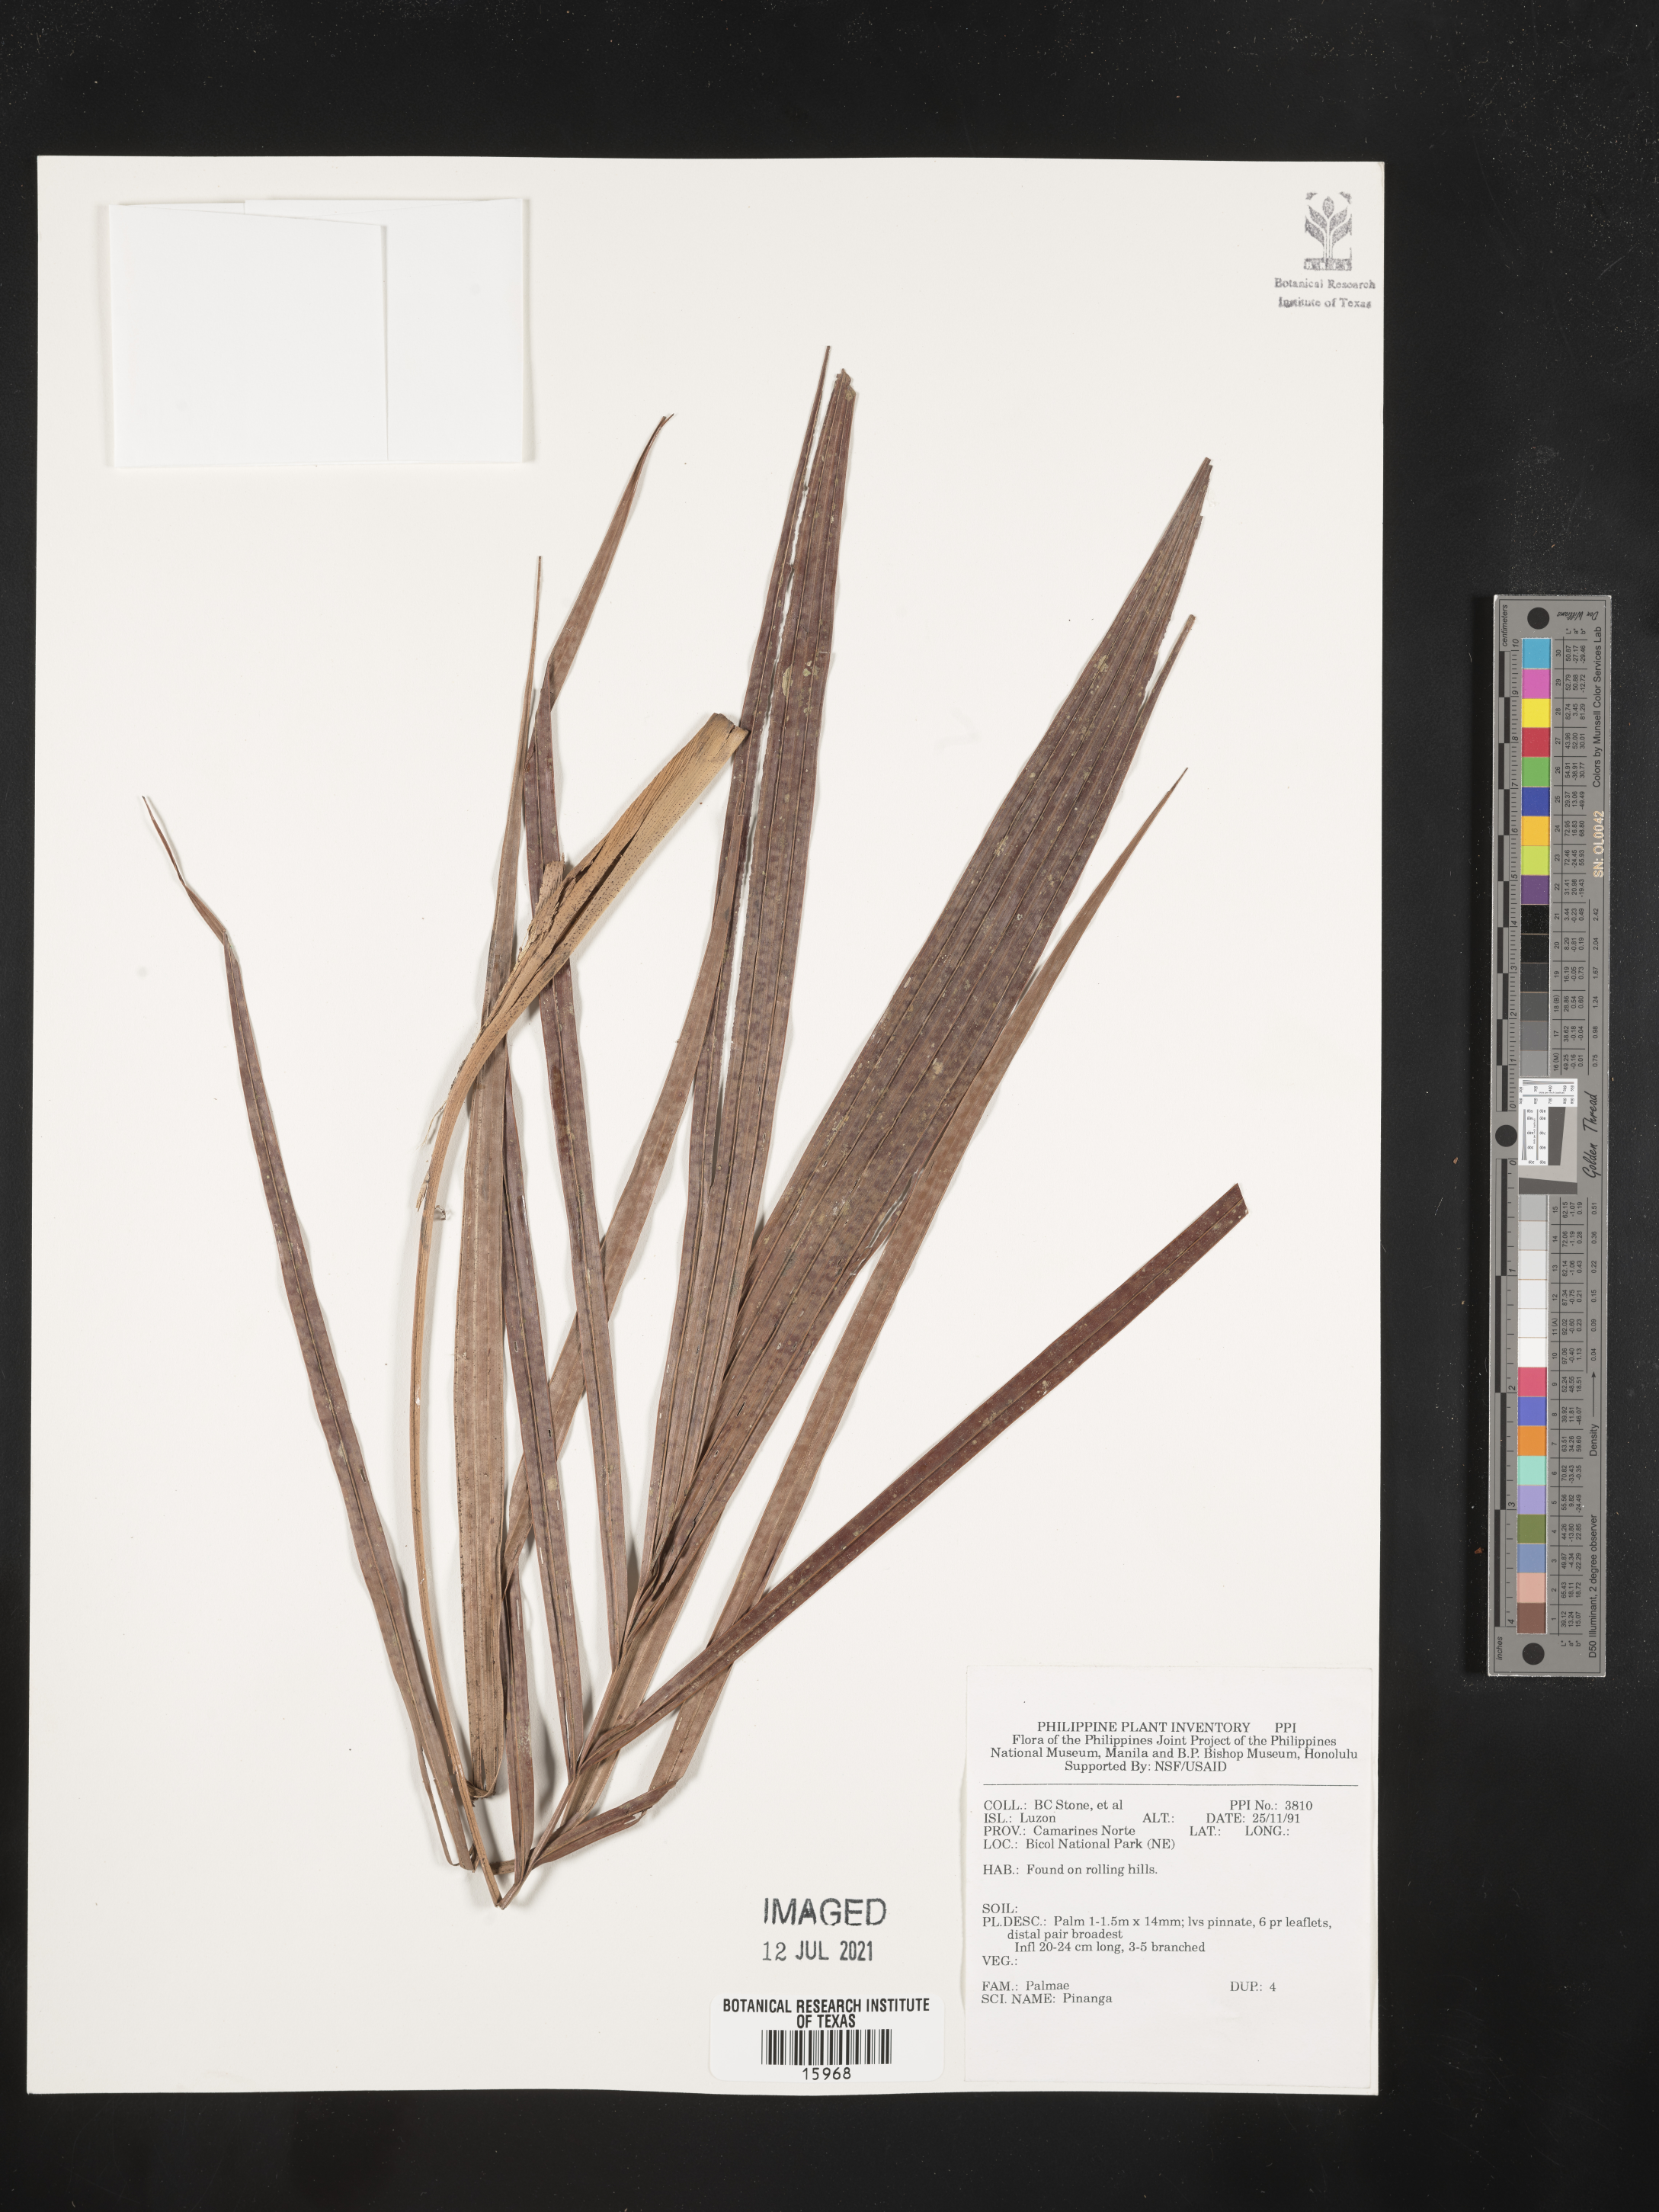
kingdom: Plantae
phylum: Tracheophyta
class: Liliopsida
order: Arecales
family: Arecaceae
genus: Pinanga
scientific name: Pinanga
